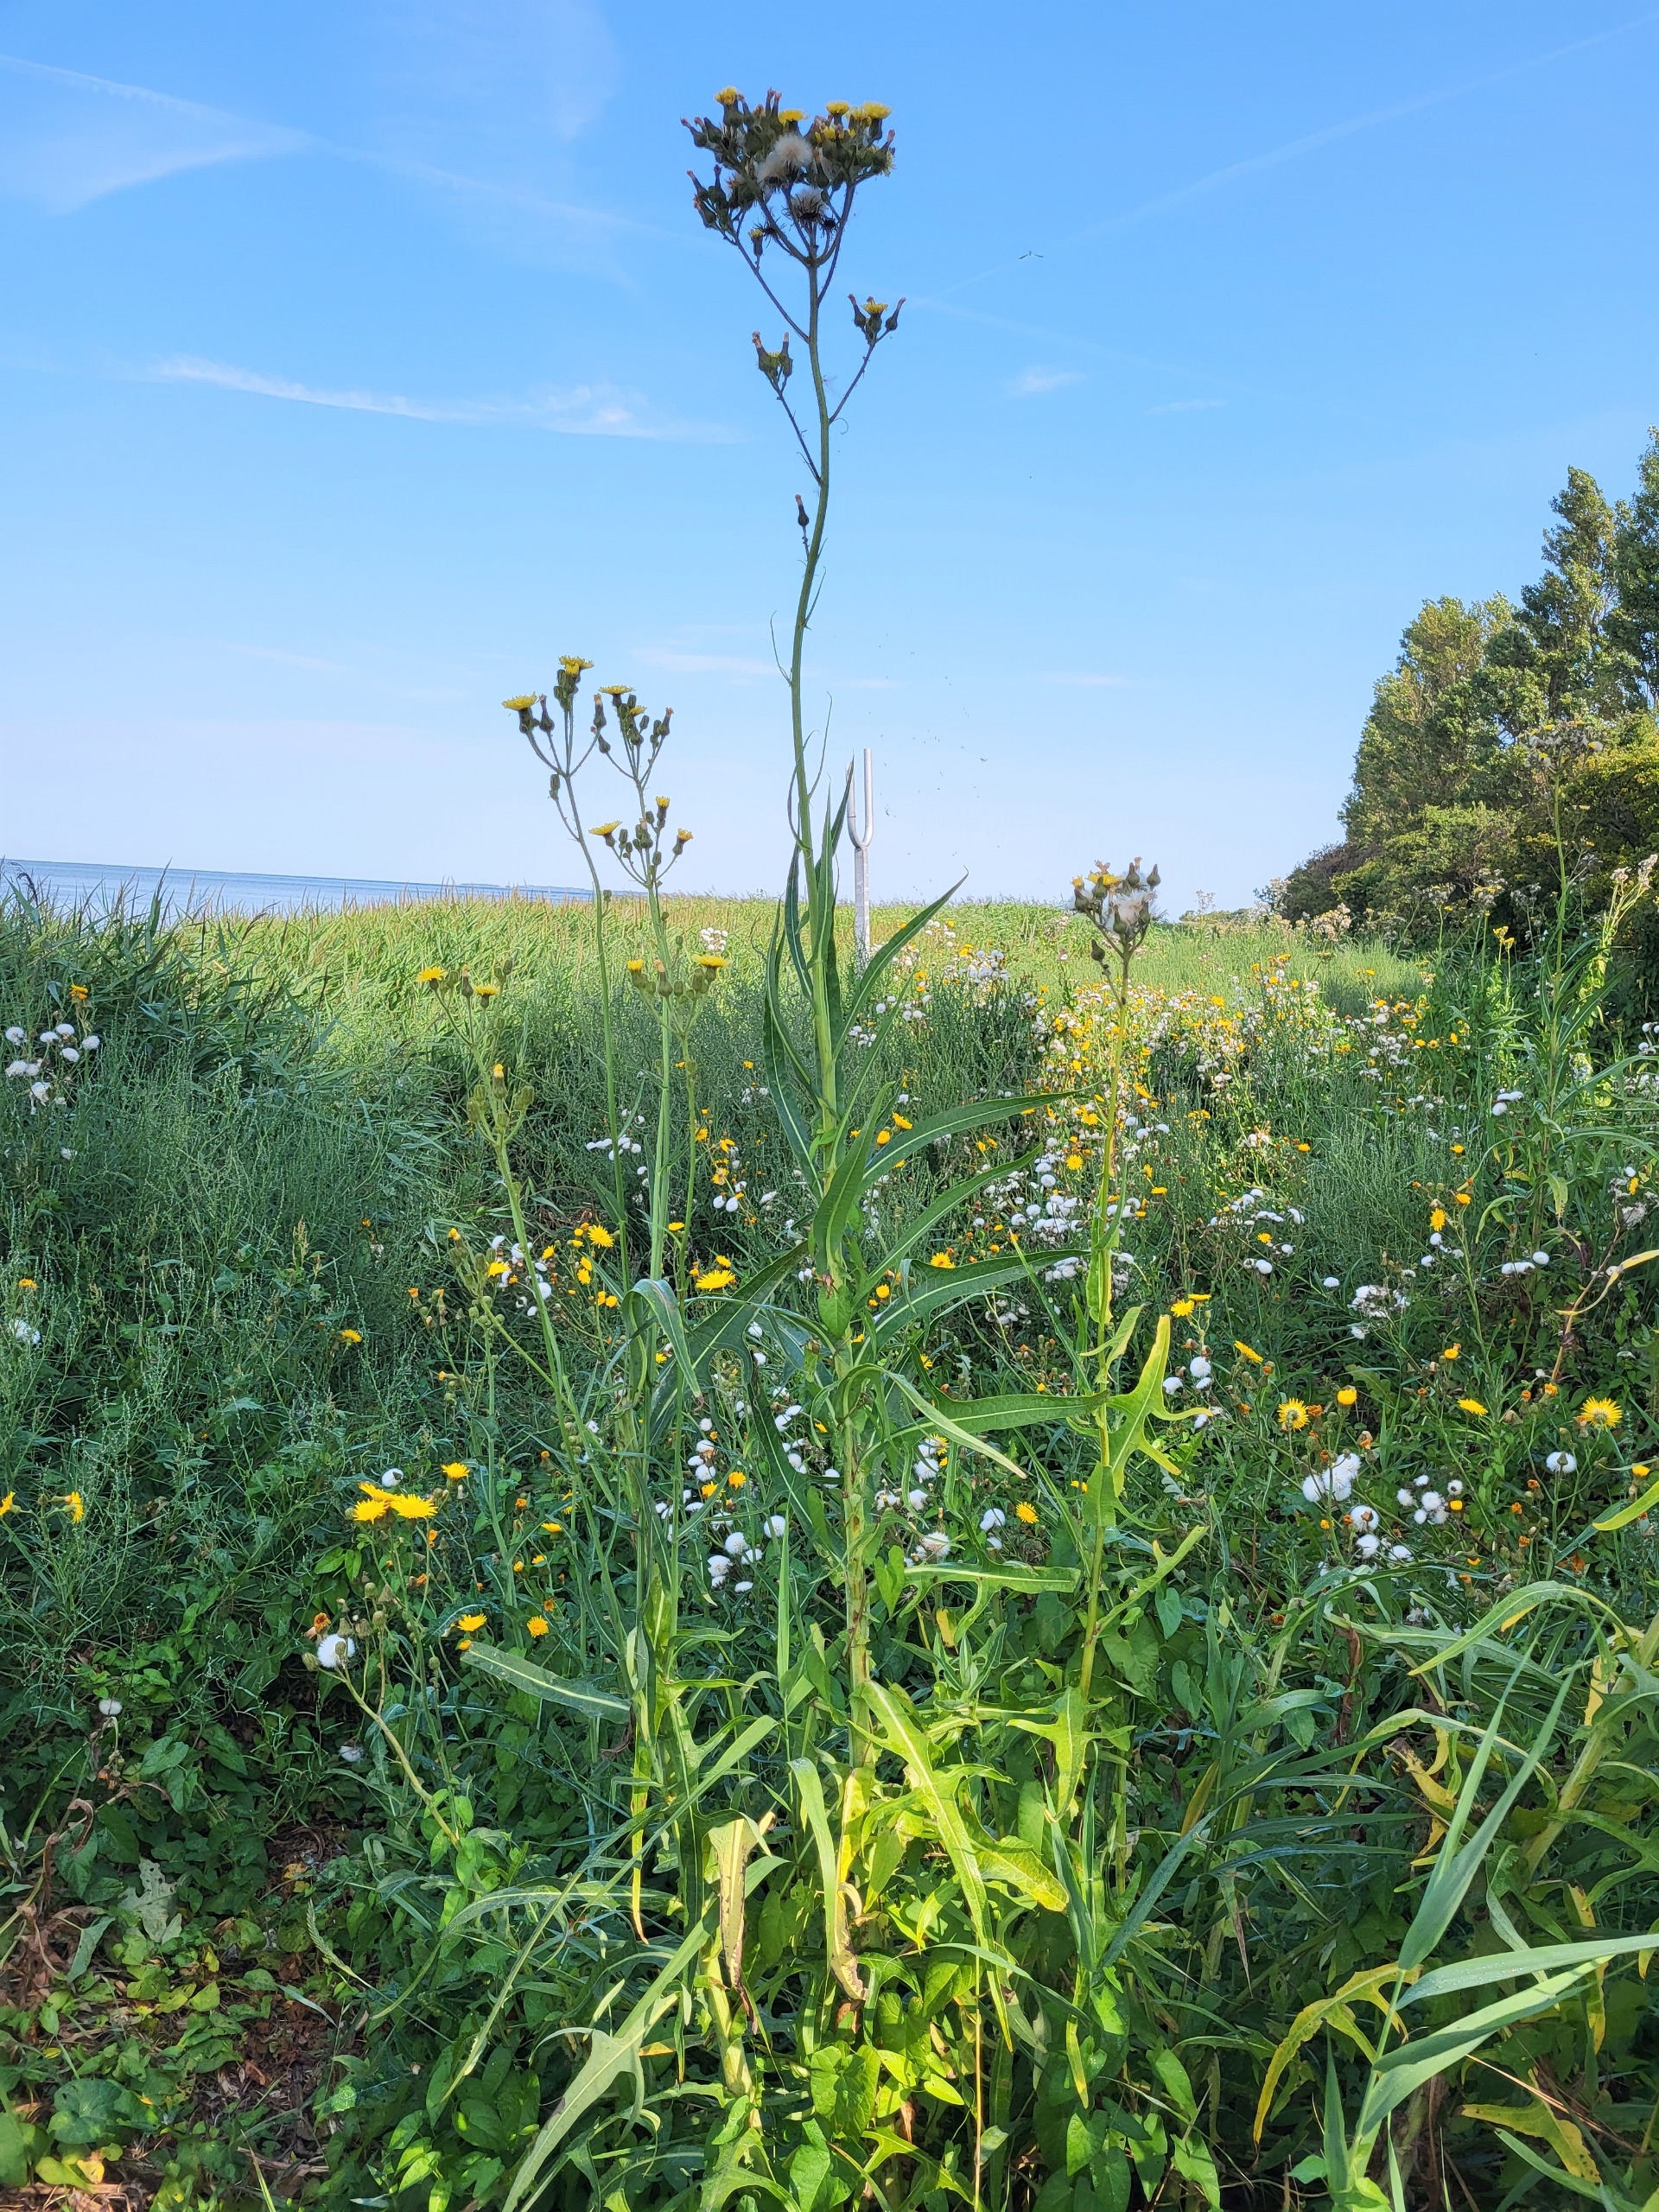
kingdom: Plantae
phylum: Tracheophyta
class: Magnoliopsida
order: Asterales
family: Asteraceae
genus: Sonchus
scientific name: Sonchus palustris
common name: Kær-svinemælk
